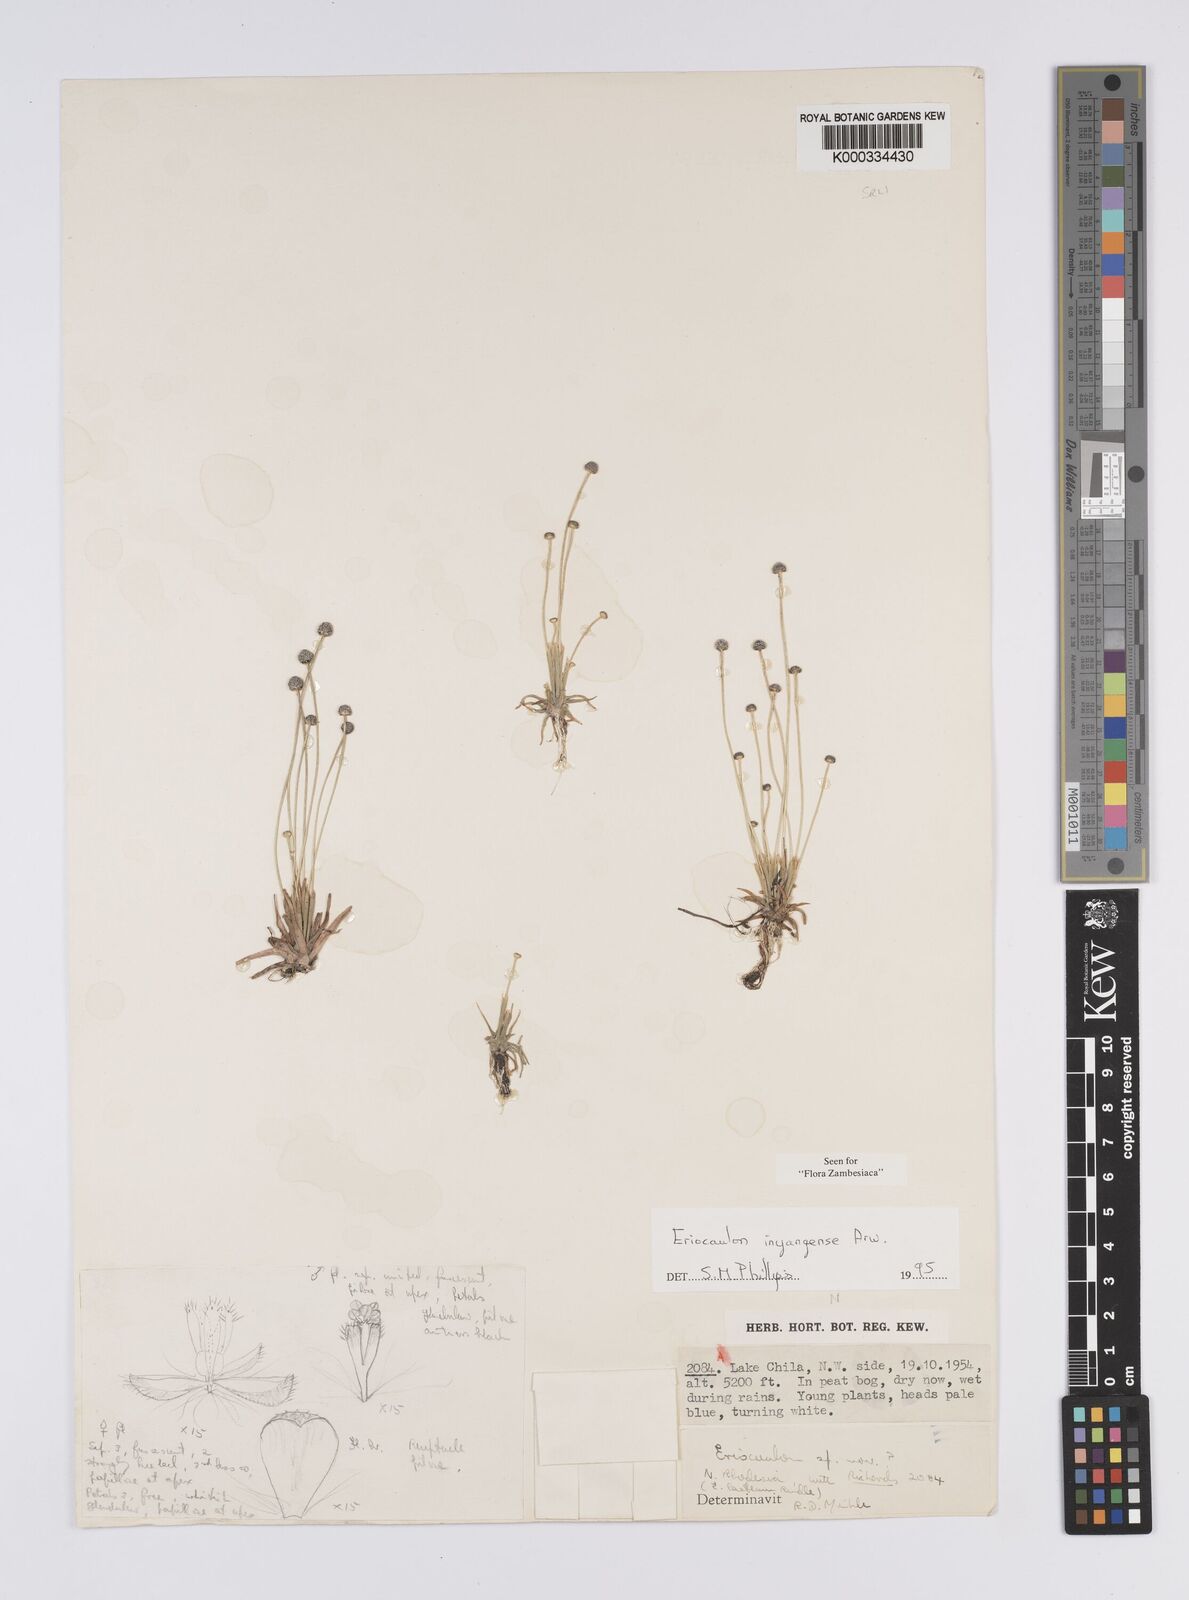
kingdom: Plantae
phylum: Tracheophyta
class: Liliopsida
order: Poales
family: Eriocaulaceae
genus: Eriocaulon
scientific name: Eriocaulon inyangense
